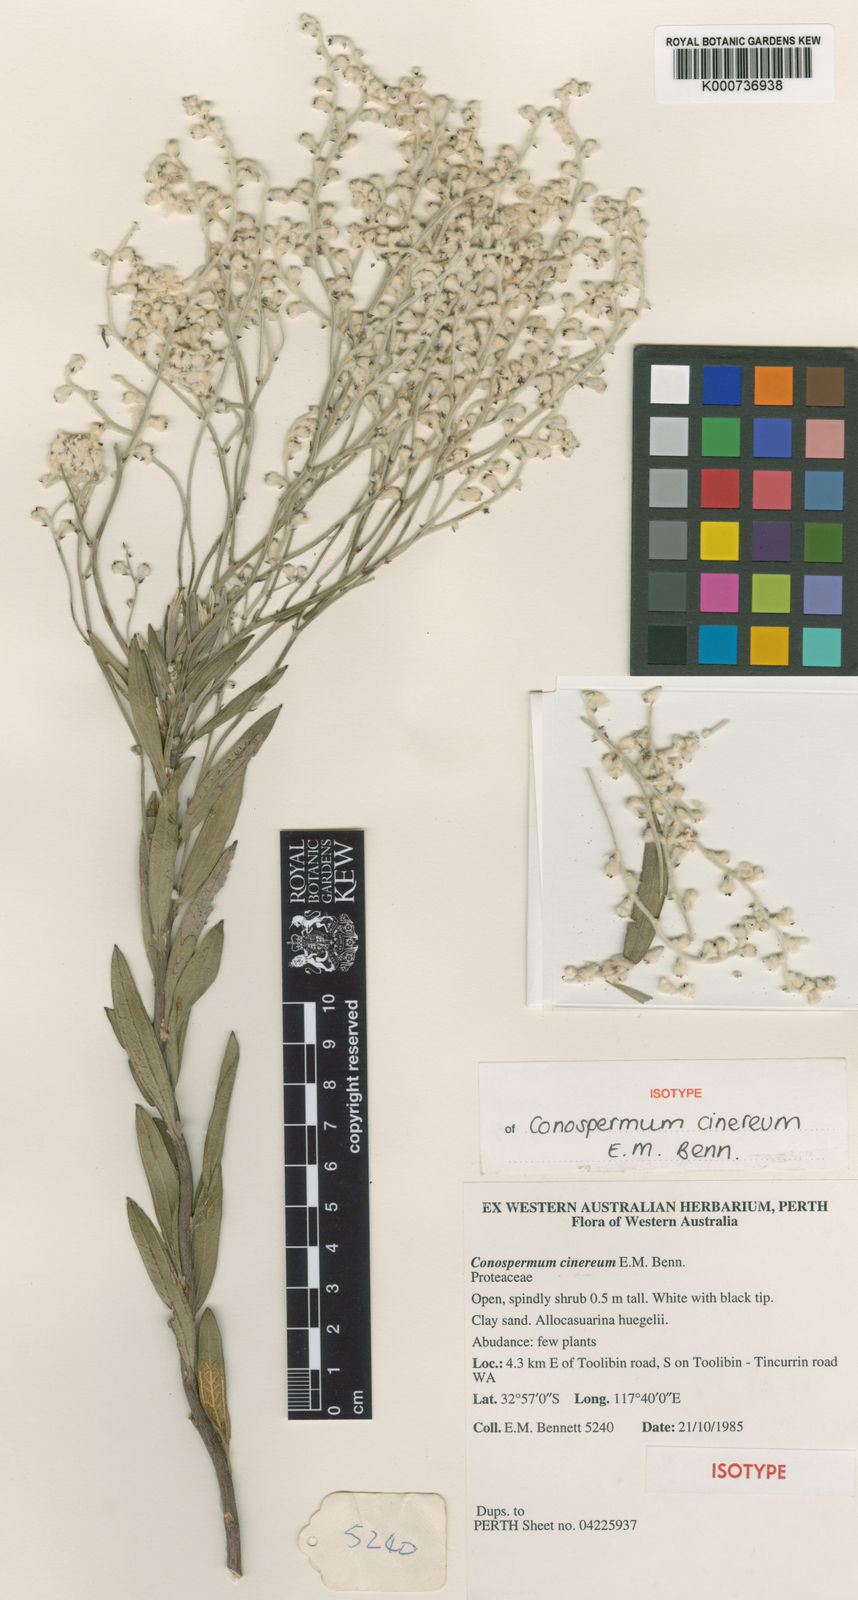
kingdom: Plantae
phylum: Tracheophyta
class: Magnoliopsida
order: Proteales
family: Proteaceae
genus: Conospermum
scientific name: Conospermum cinereum
